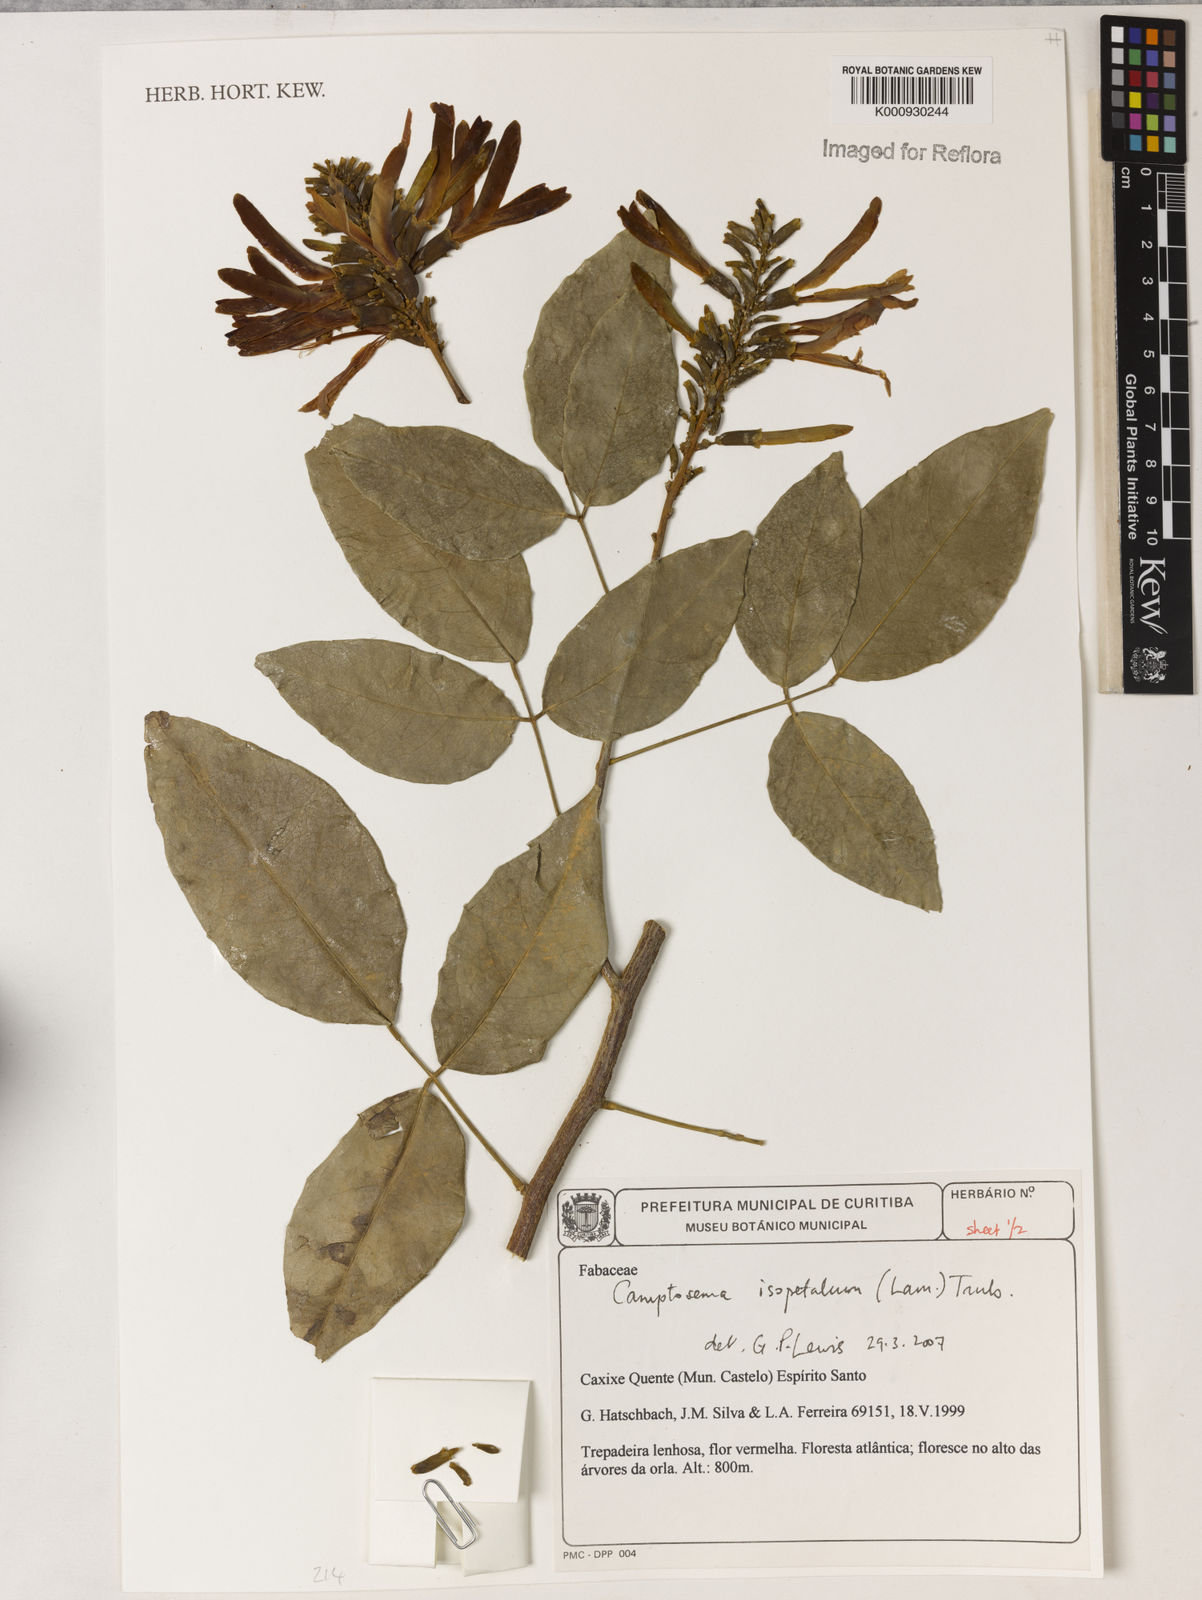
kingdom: Plantae
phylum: Tracheophyta
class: Magnoliopsida
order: Fabales
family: Fabaceae
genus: Cratylia
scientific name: Cratylia isopetala
